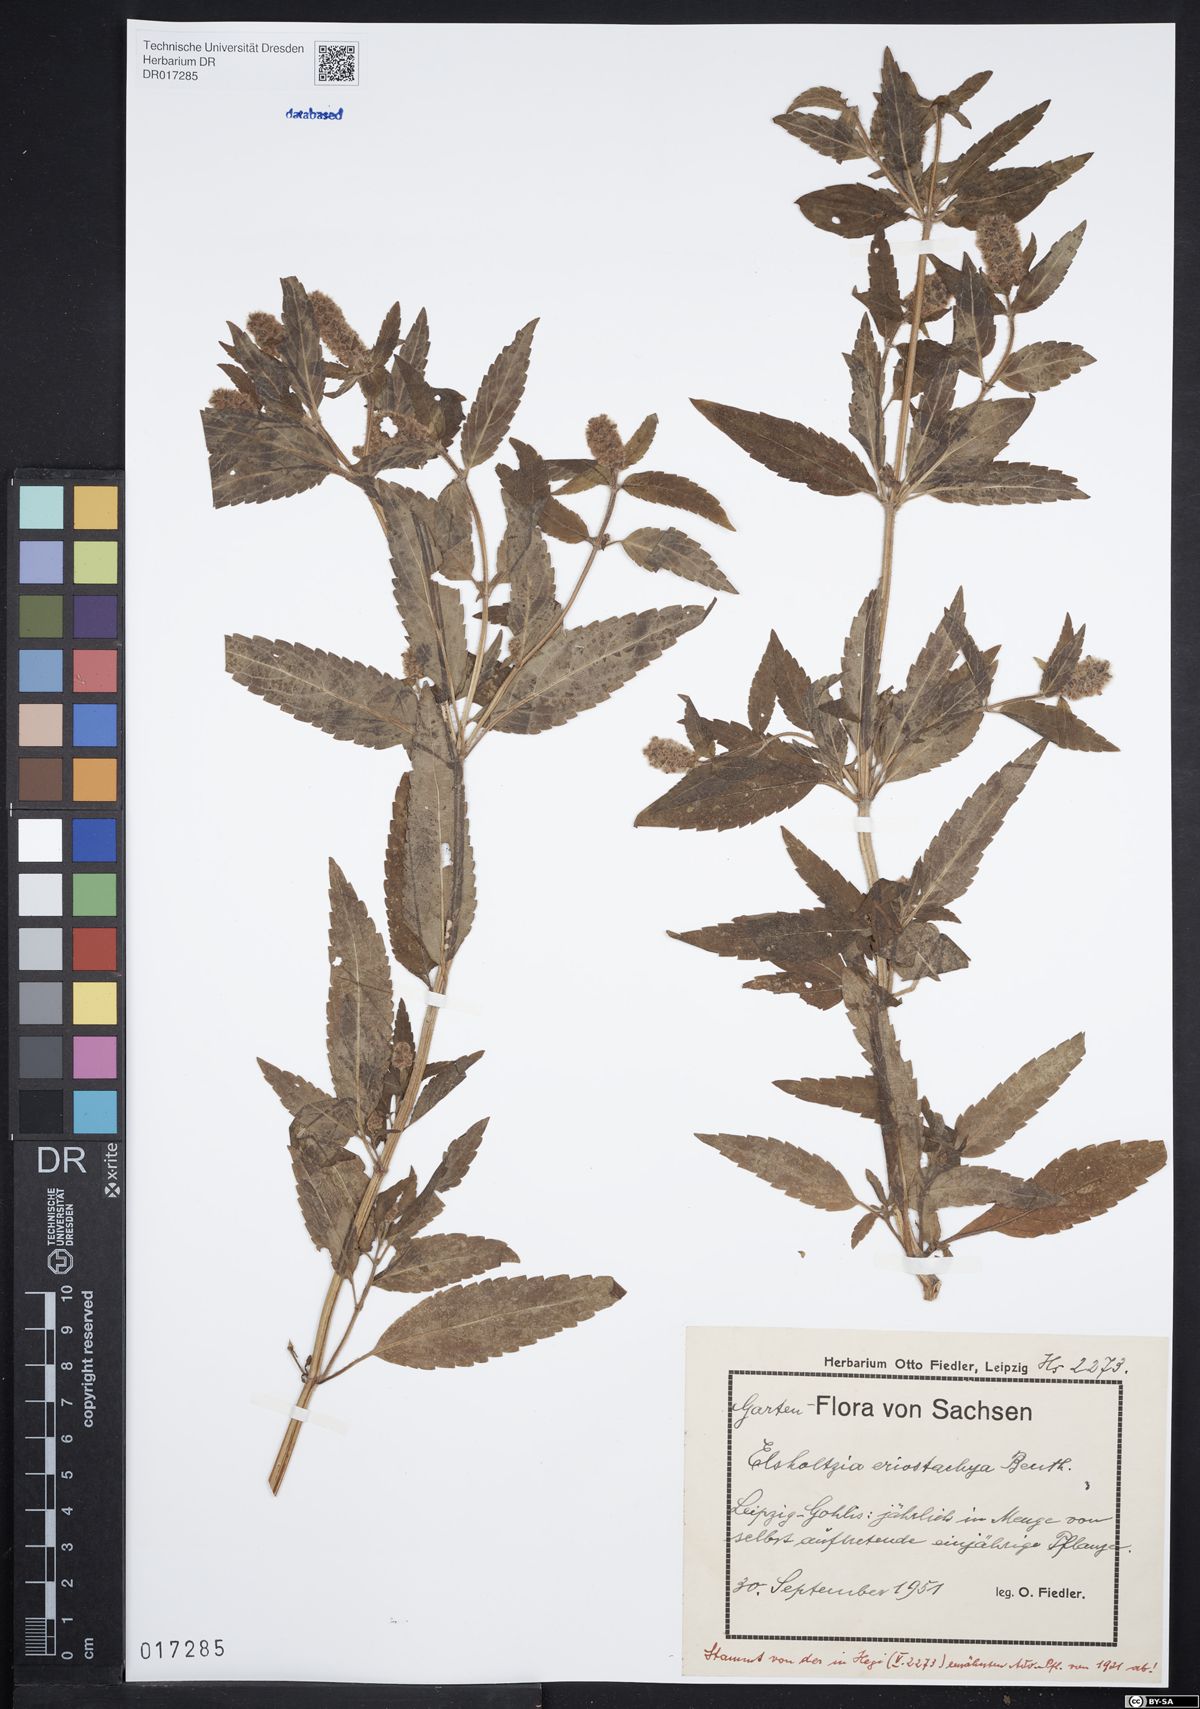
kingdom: Plantae
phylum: Tracheophyta
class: Magnoliopsida
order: Lamiales
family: Lamiaceae
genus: Elsholtzia
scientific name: Elsholtzia ciliata
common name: Ciliate elsholtzia
